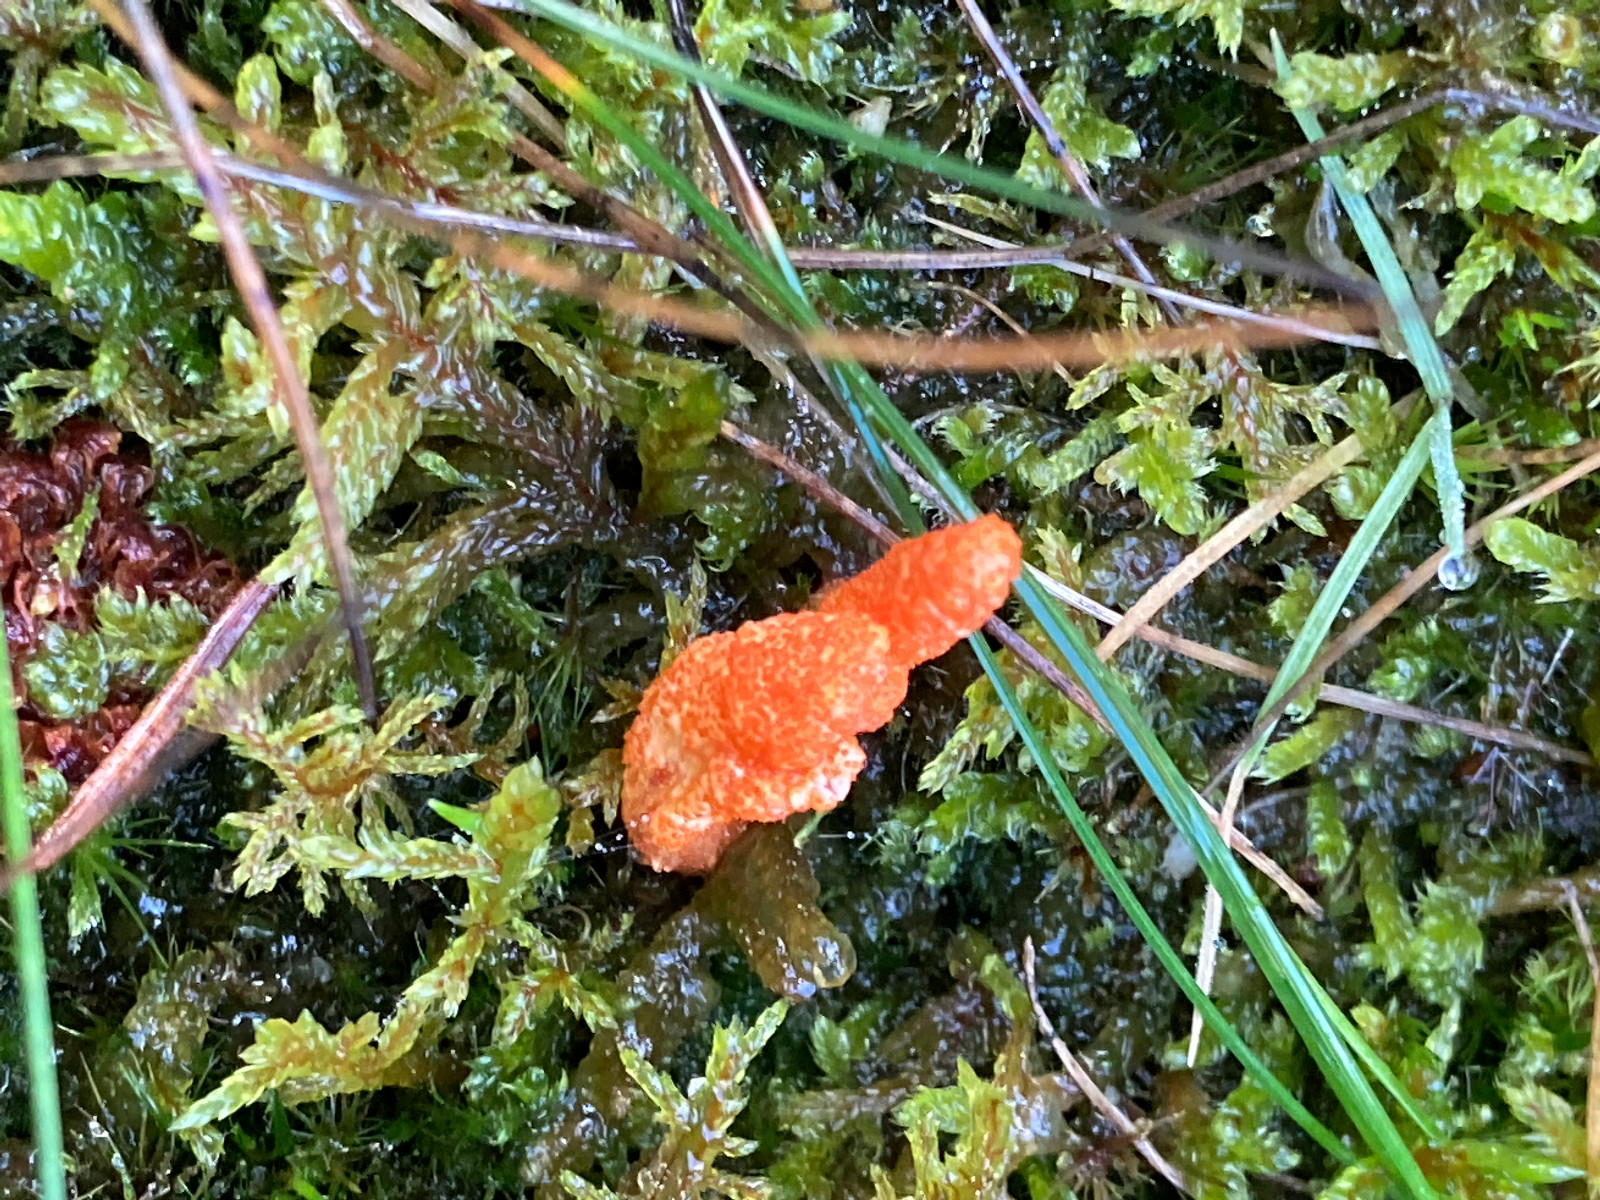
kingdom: Fungi
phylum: Ascomycota
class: Sordariomycetes
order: Hypocreales
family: Cordycipitaceae
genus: Cordyceps
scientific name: Cordyceps militaris
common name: puppe-snyltekølle
